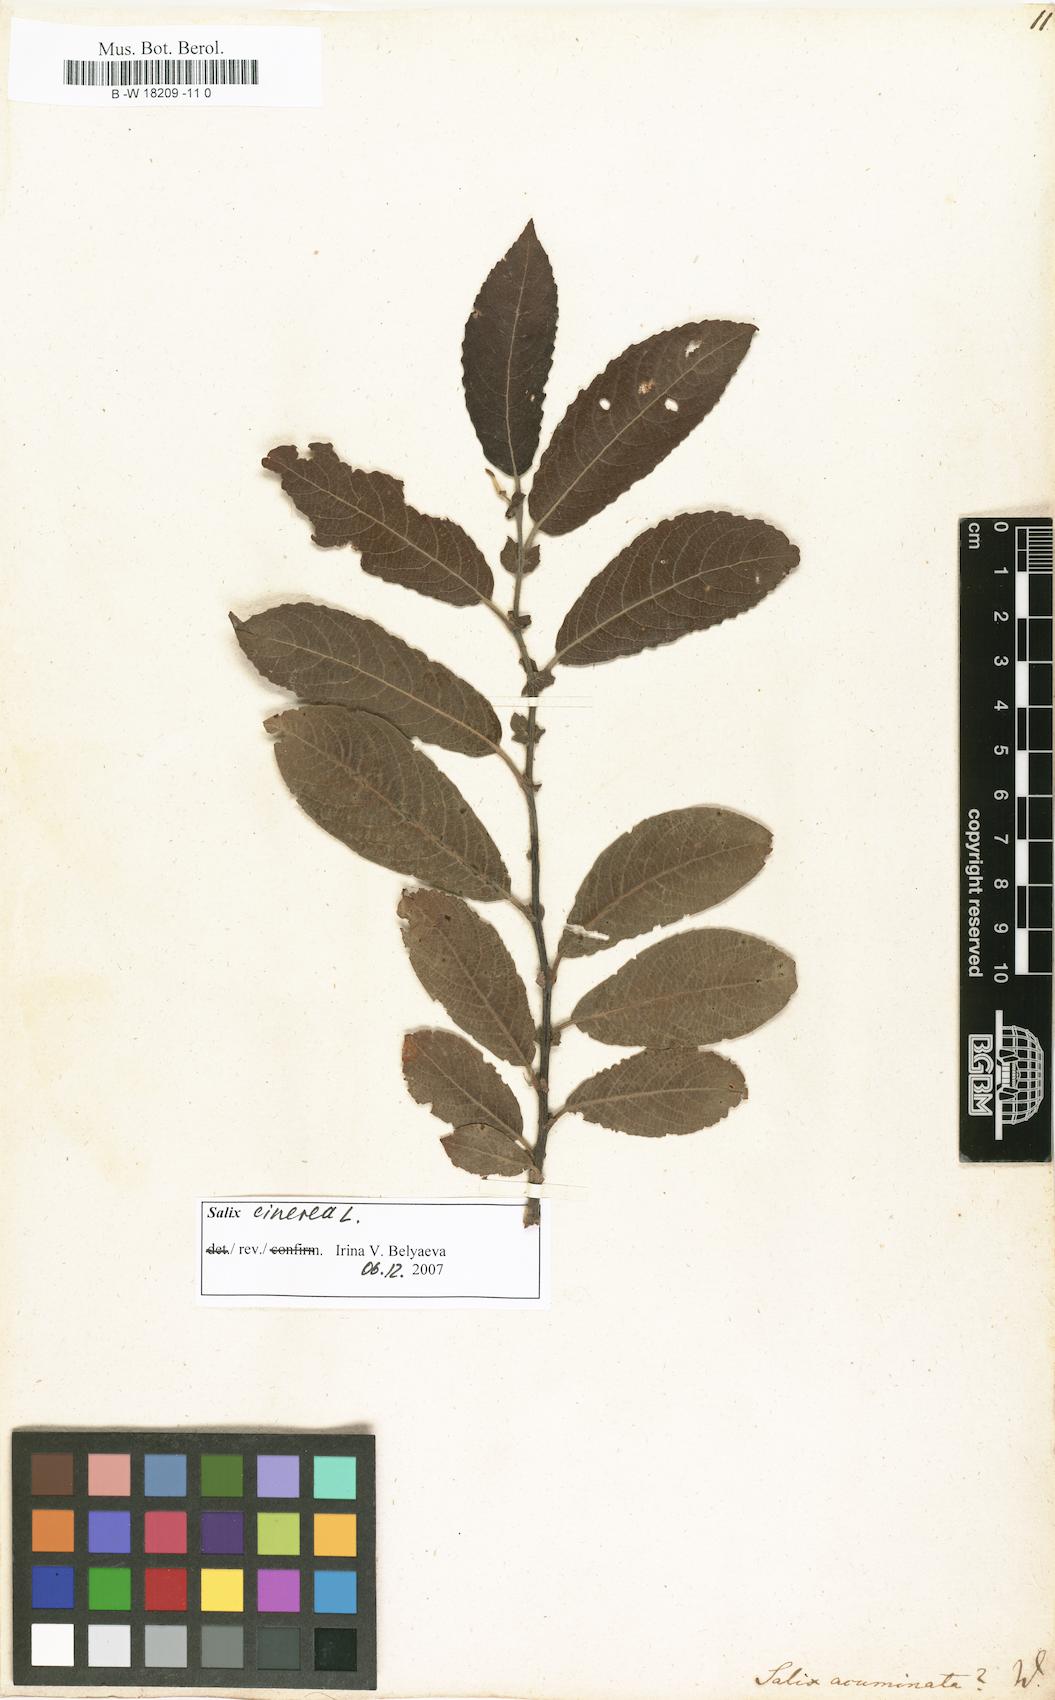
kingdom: Plantae
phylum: Tracheophyta
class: Magnoliopsida
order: Malpighiales
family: Salicaceae
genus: Salix
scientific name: Salix
